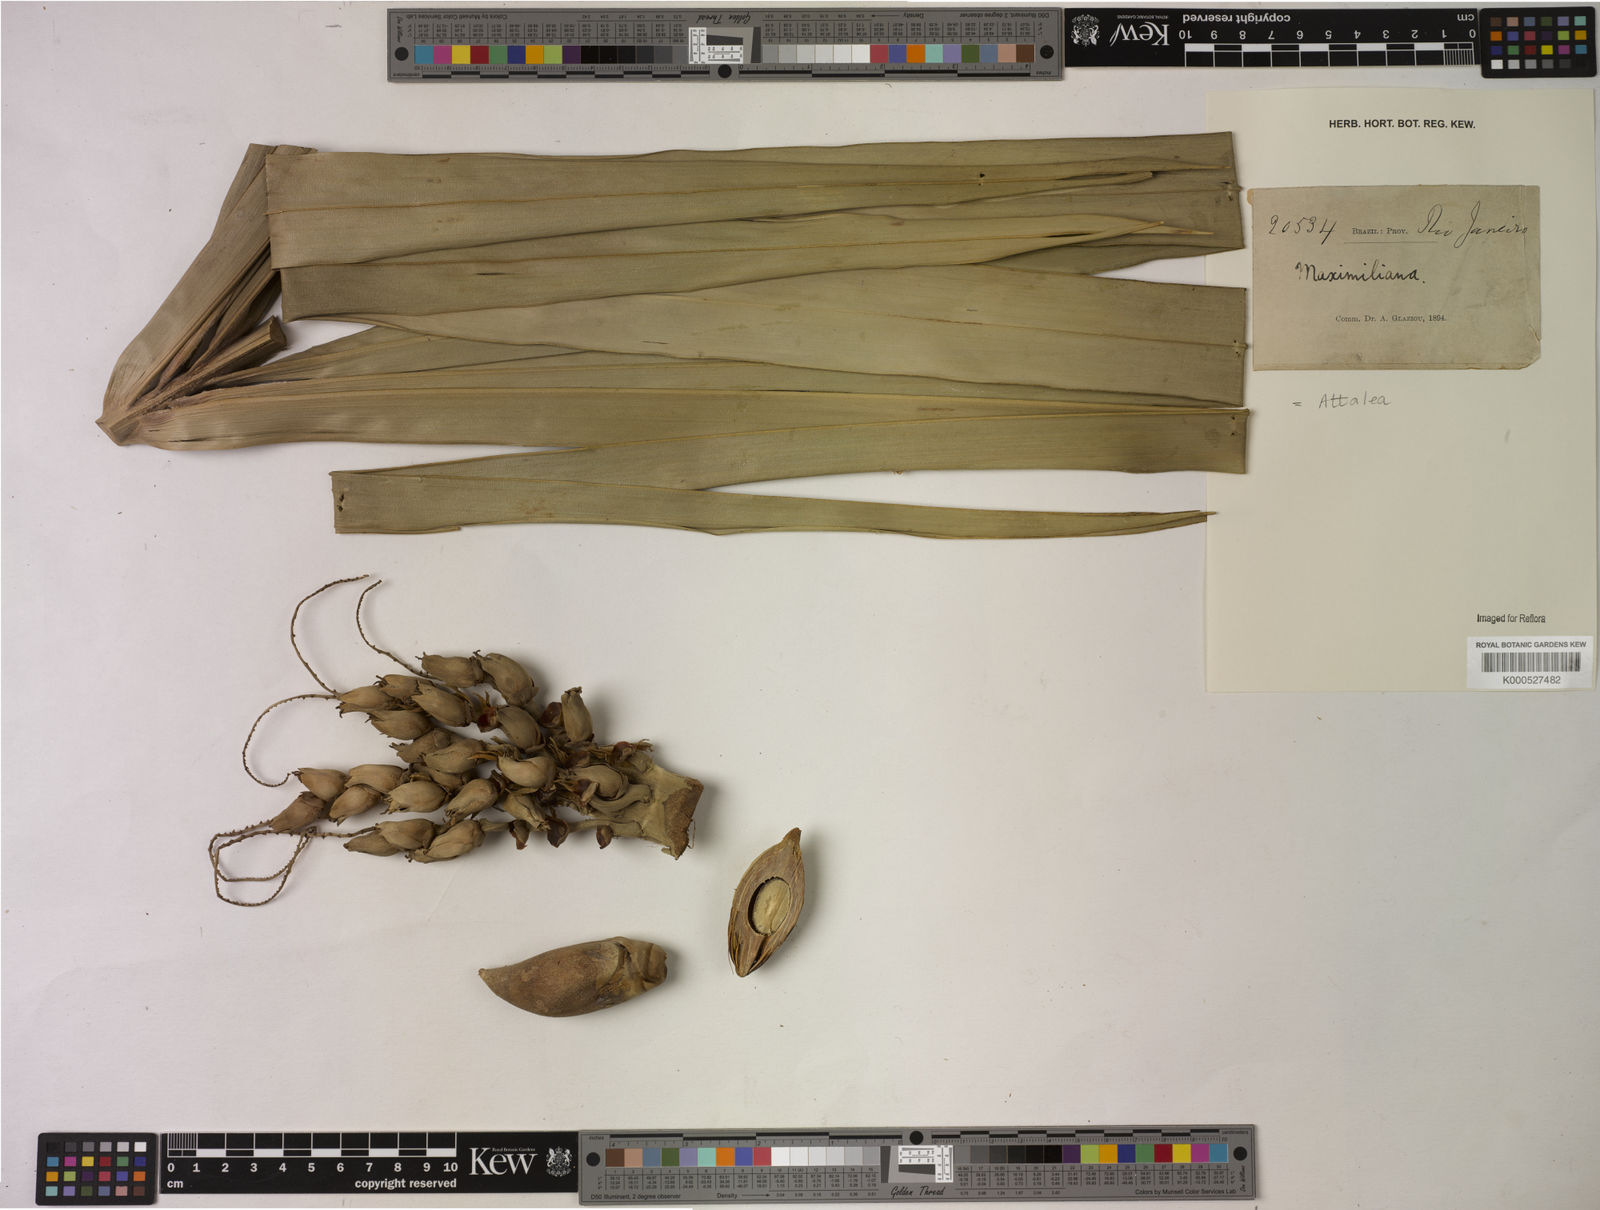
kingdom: Plantae
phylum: Tracheophyta
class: Liliopsida
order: Arecales
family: Arecaceae
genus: Attalea
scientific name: Attalea
